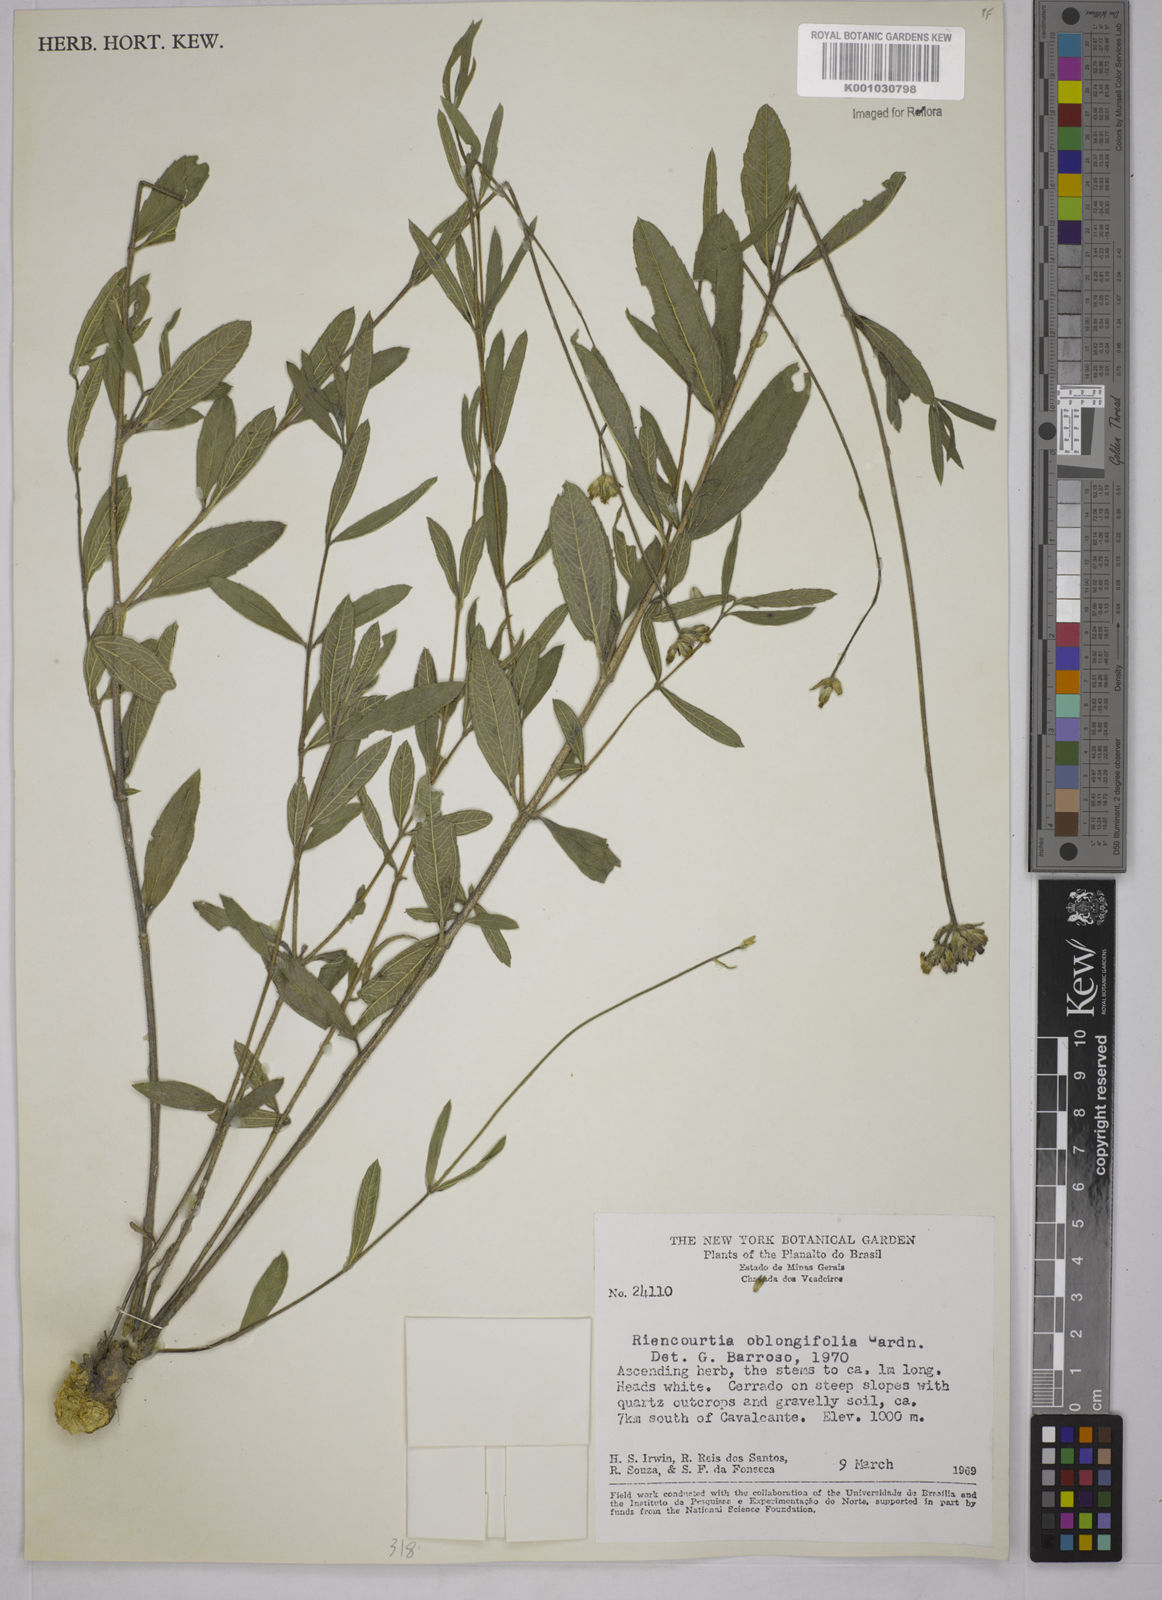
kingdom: Plantae
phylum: Tracheophyta
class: Magnoliopsida
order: Asterales
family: Asteraceae
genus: Riencourtia
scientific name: Riencourtia oblongifolia
